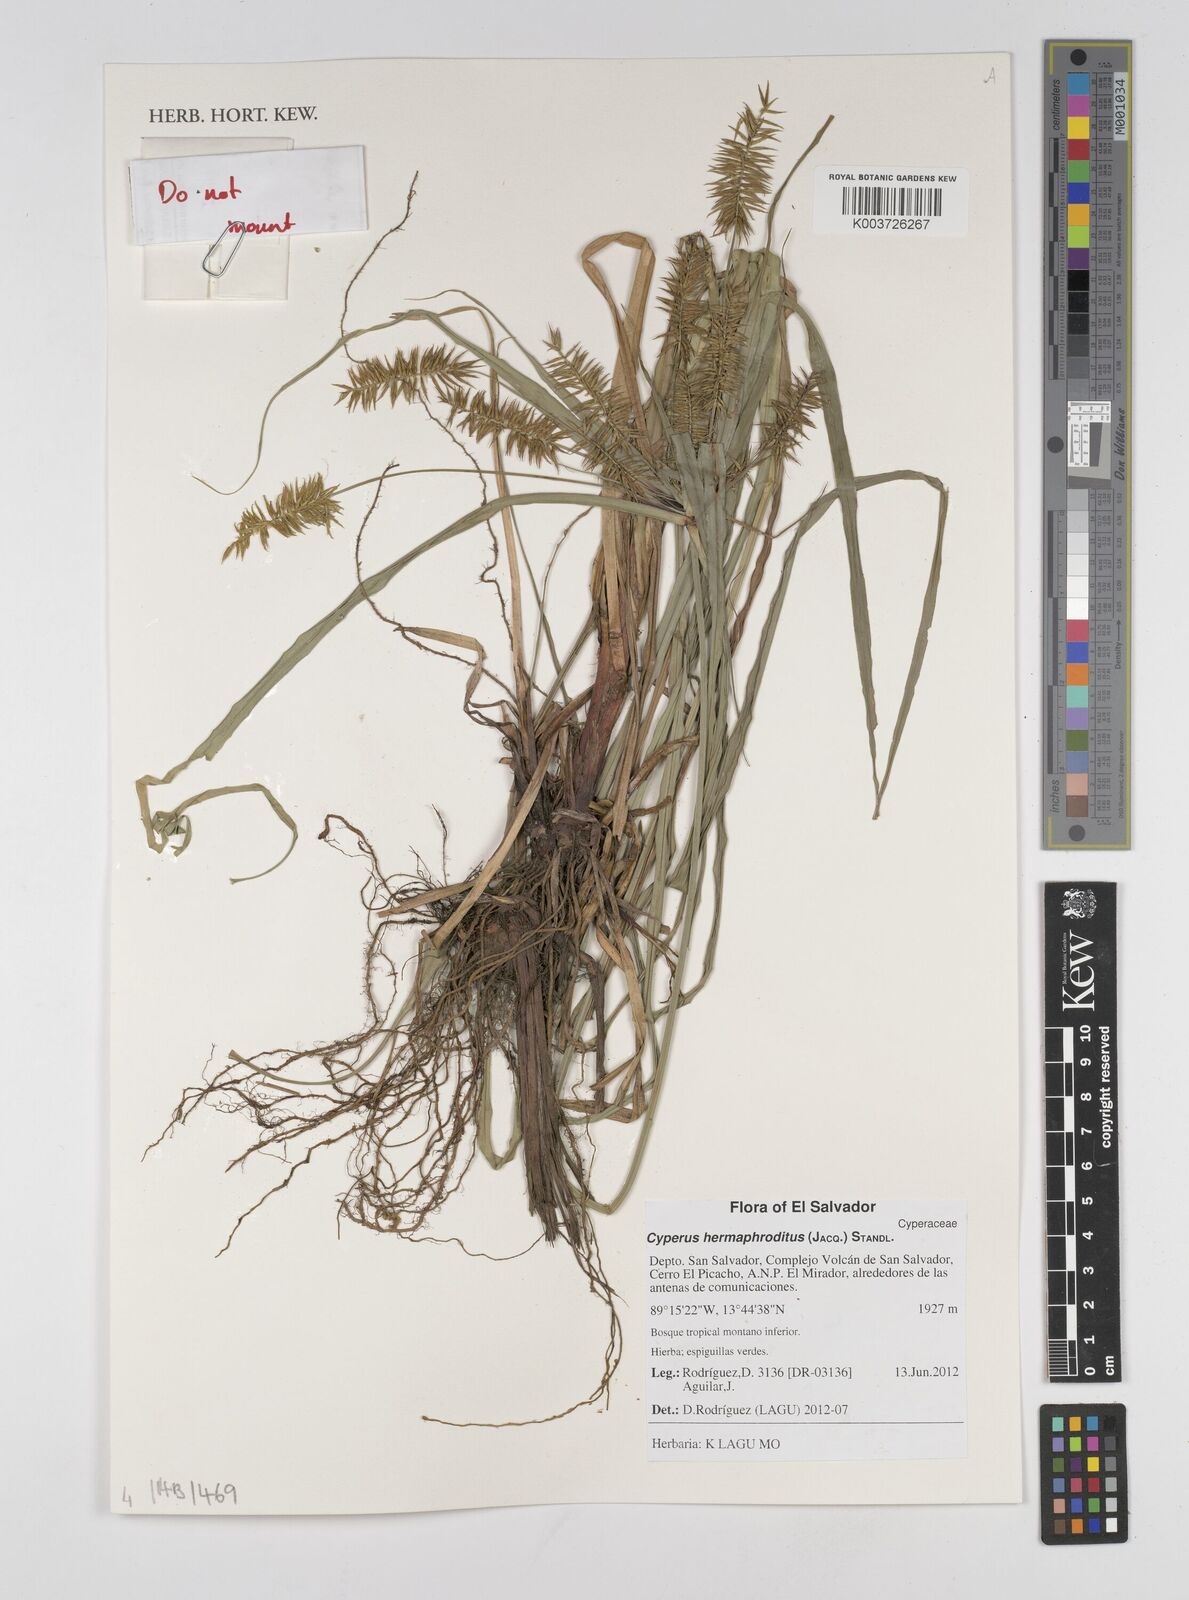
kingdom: Plantae
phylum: Tracheophyta
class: Liliopsida
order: Poales
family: Cyperaceae
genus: Cyperus
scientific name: Cyperus hermaphroditus
